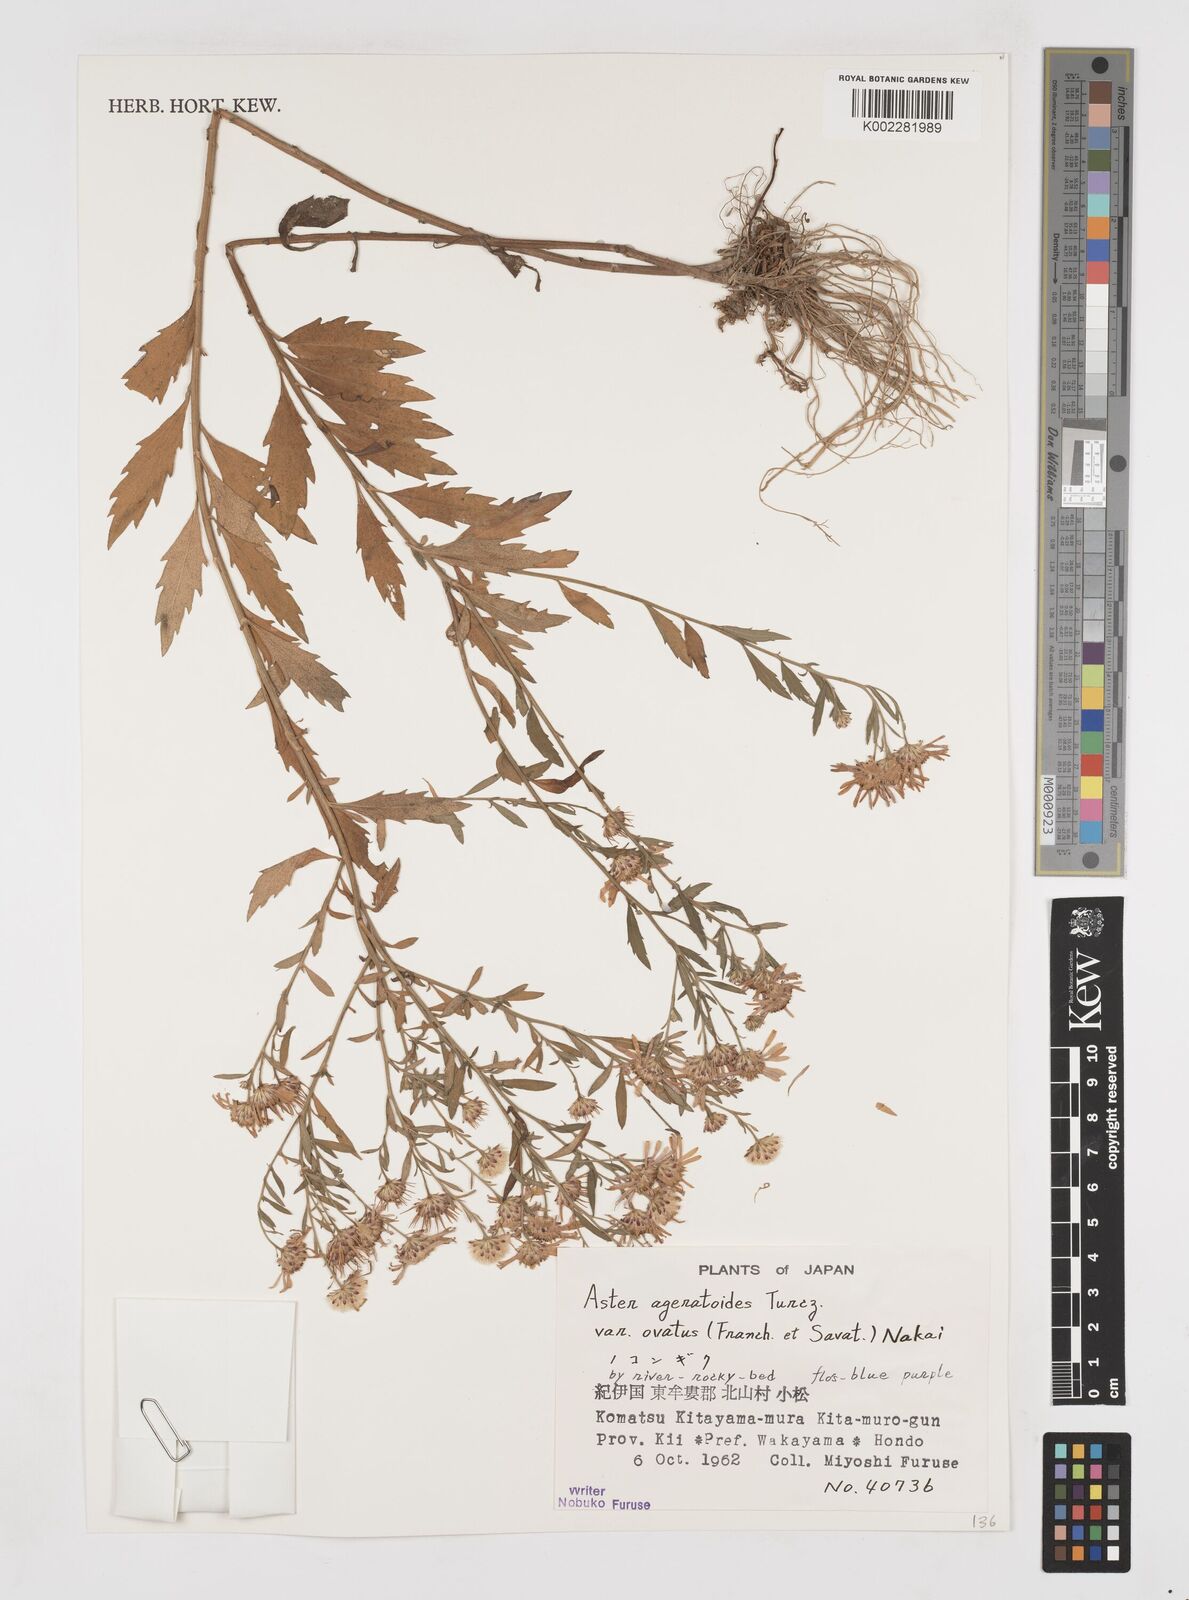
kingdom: Plantae
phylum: Tracheophyta
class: Magnoliopsida
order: Asterales
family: Asteraceae
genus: Galatella
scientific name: Galatella sedifolia
